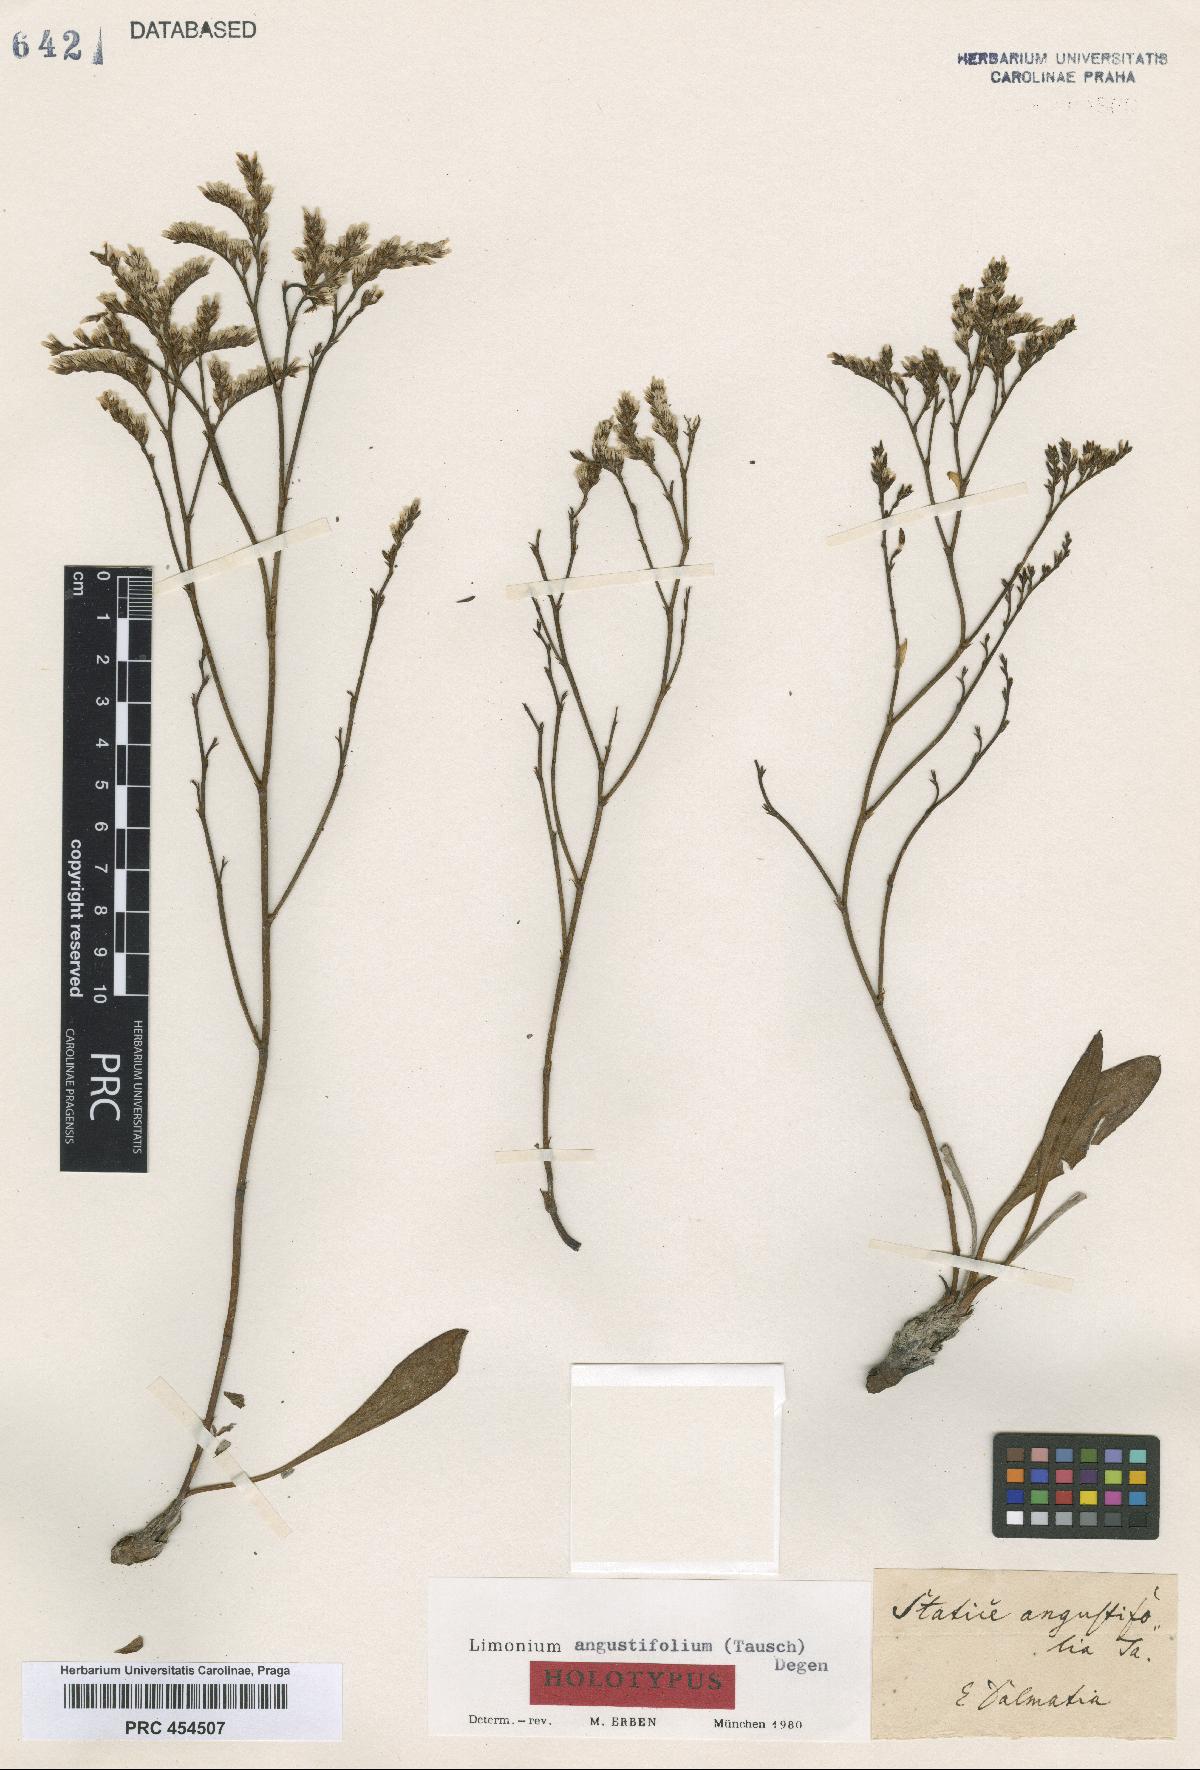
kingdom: Plantae
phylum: Tracheophyta
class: Magnoliopsida
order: Caryophyllales
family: Plumbaginaceae
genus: Limonium
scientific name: Limonium narbonense
